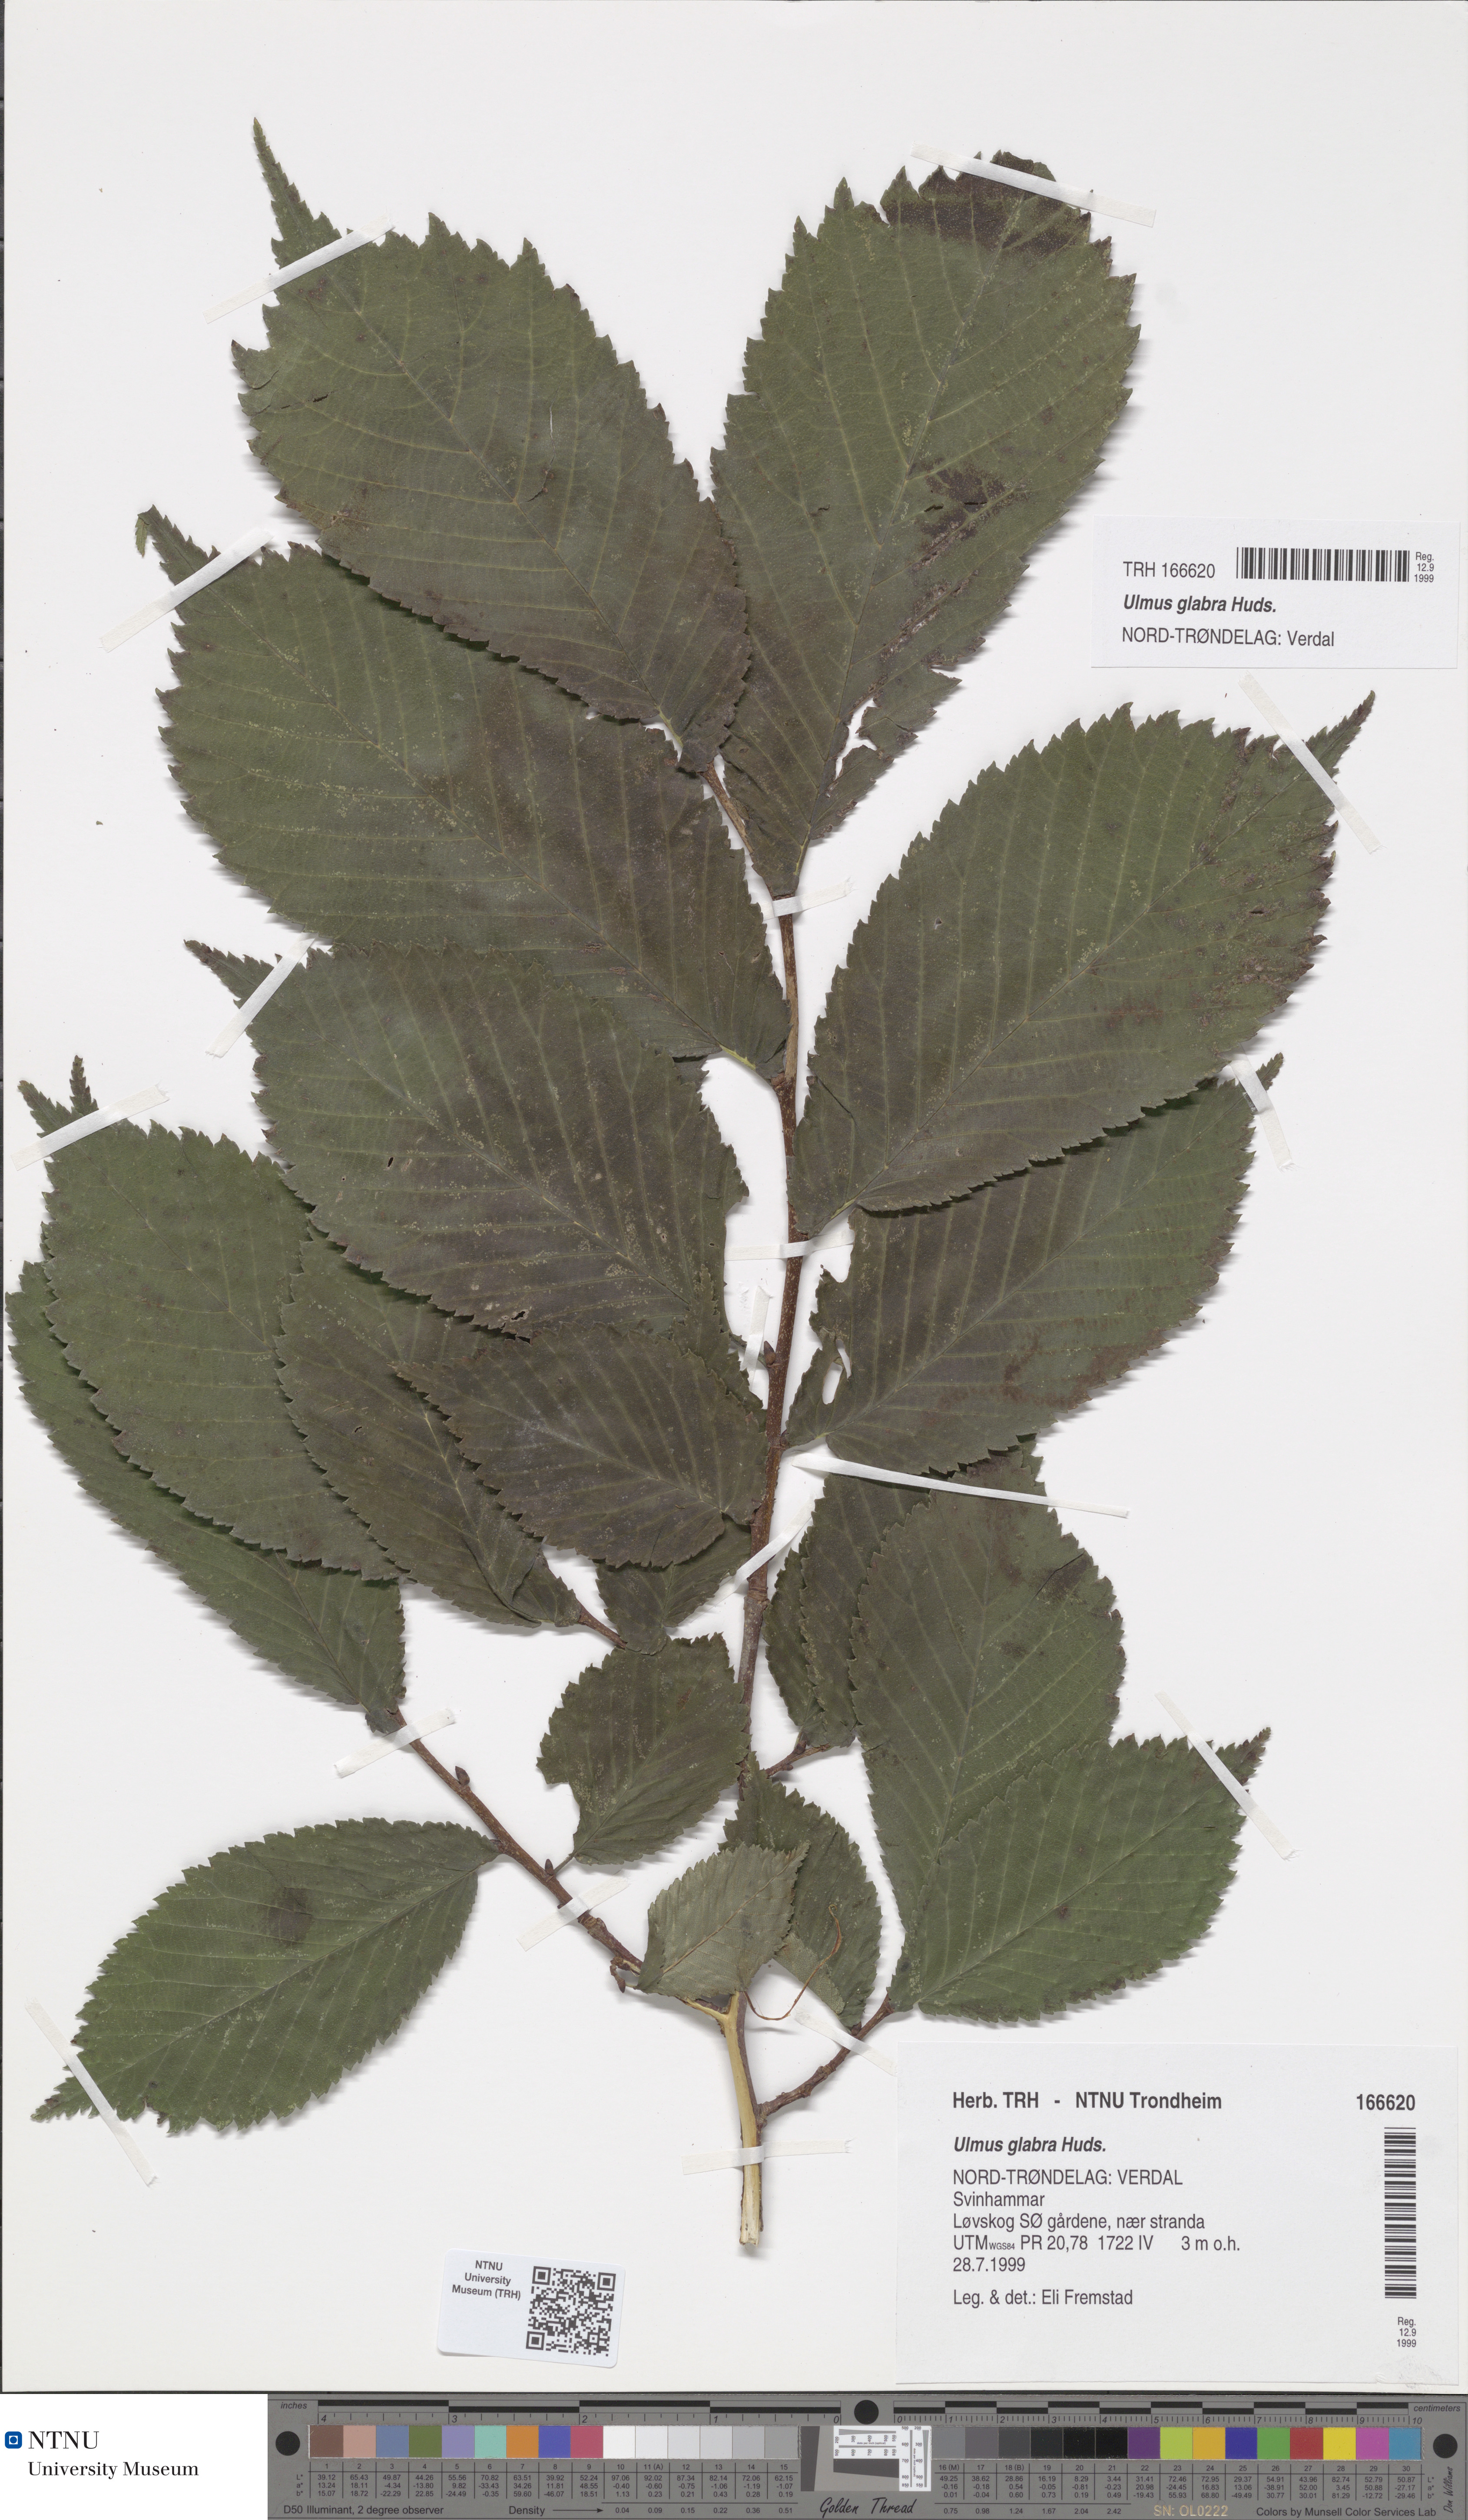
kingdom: Plantae
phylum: Tracheophyta
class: Magnoliopsida
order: Rosales
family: Ulmaceae
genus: Ulmus
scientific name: Ulmus glabra
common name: Wych elm
